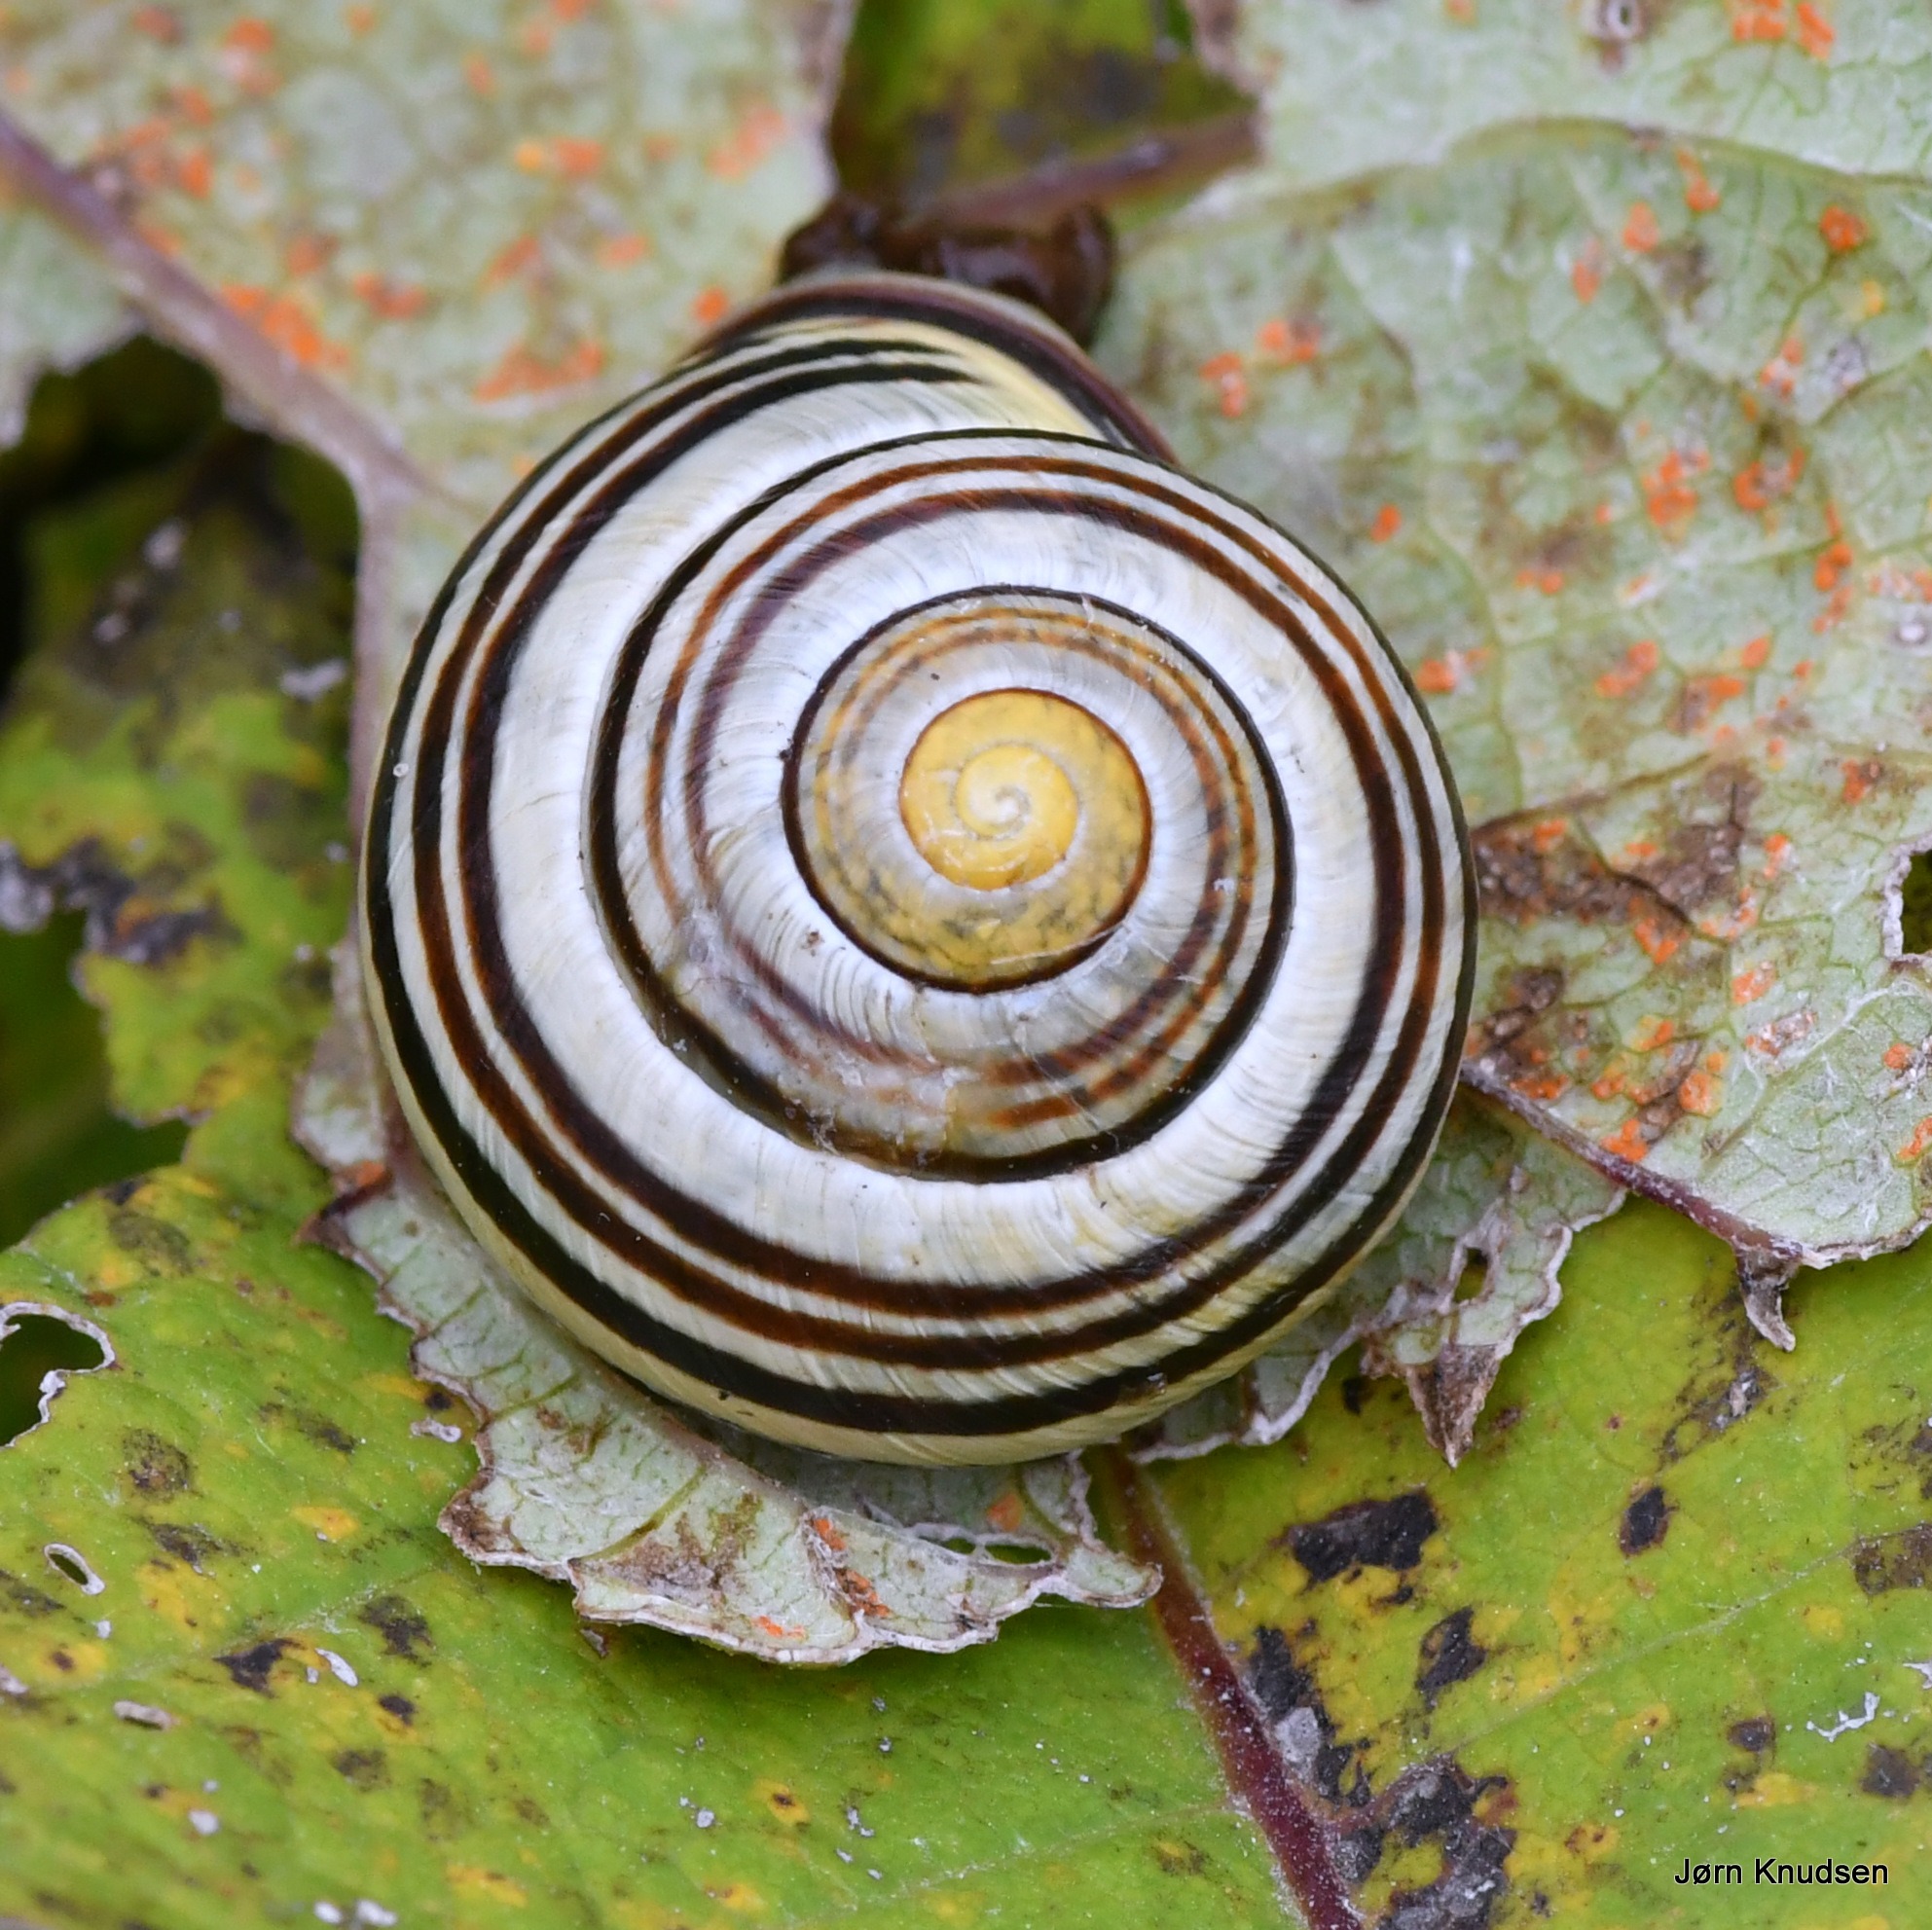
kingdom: Animalia
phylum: Mollusca
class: Gastropoda
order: Stylommatophora
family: Helicidae
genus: Cepaea
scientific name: Cepaea nemoralis
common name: Lundsnegl
